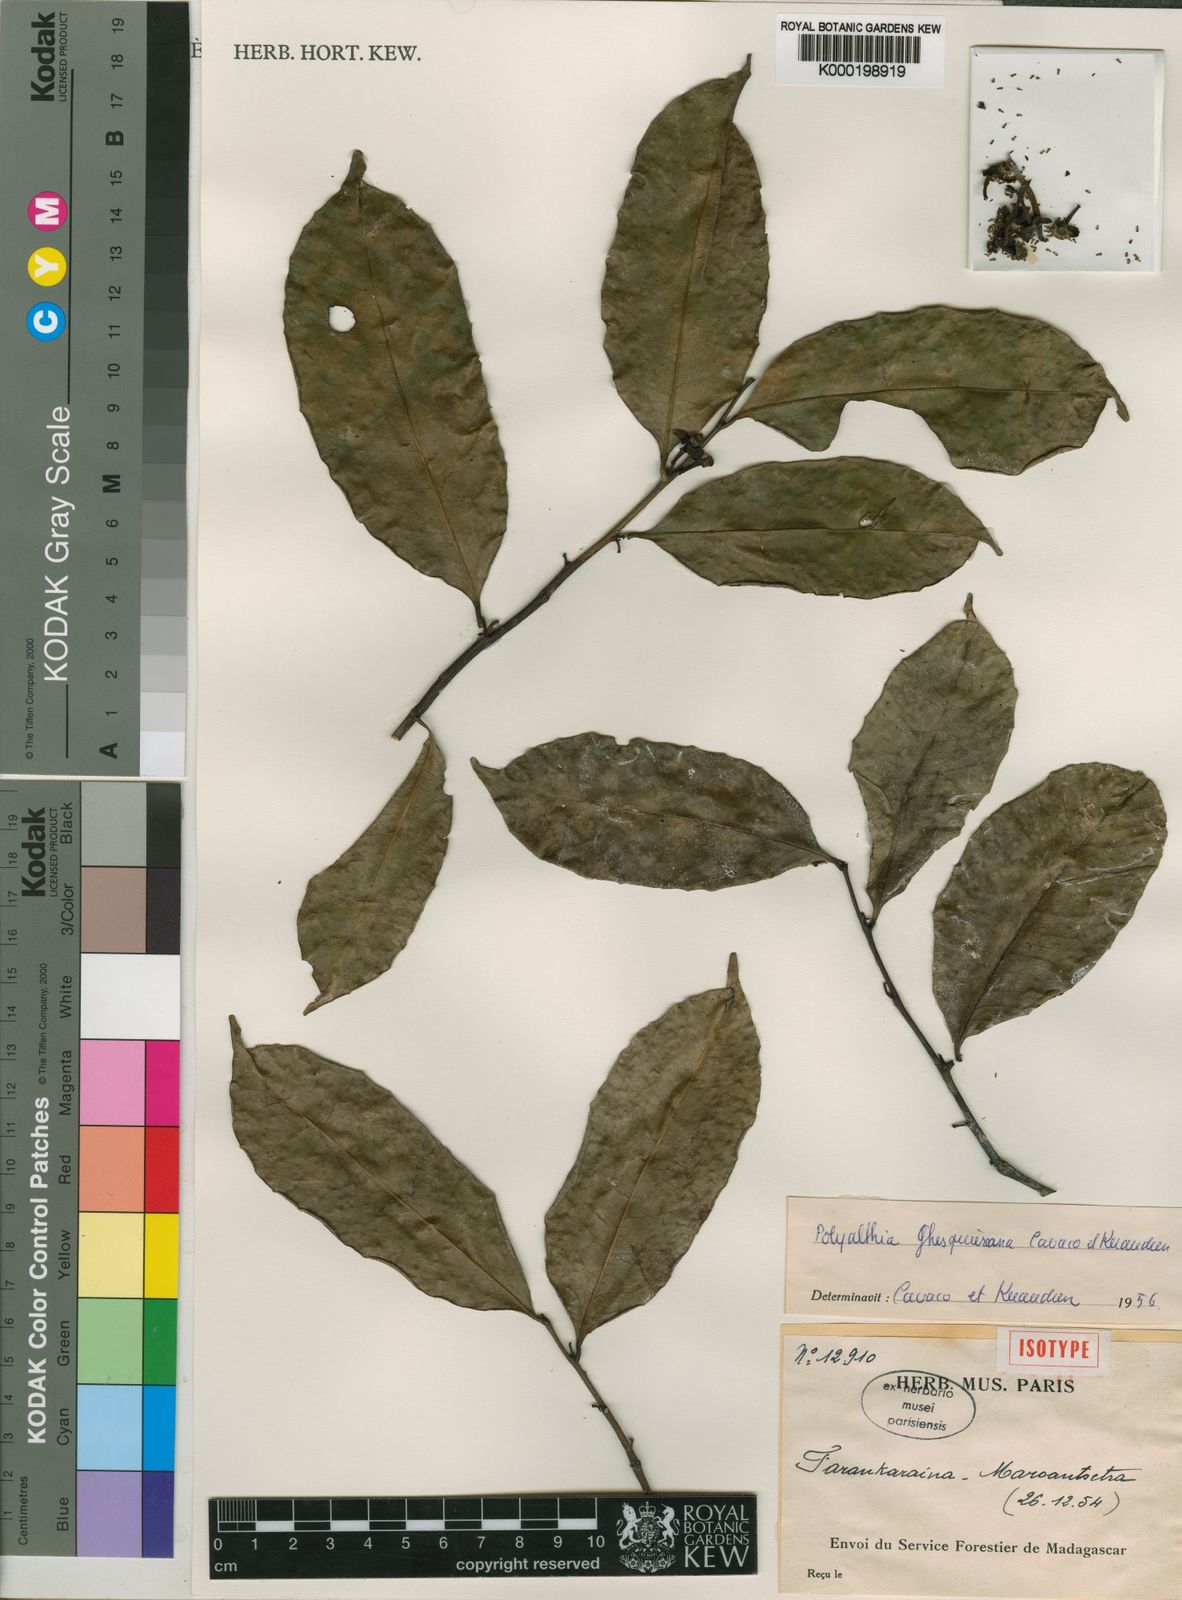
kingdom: Plantae
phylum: Tracheophyta
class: Magnoliopsida
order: Magnoliales
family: Annonaceae
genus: Fenerivia
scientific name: Fenerivia ghesquiereana
